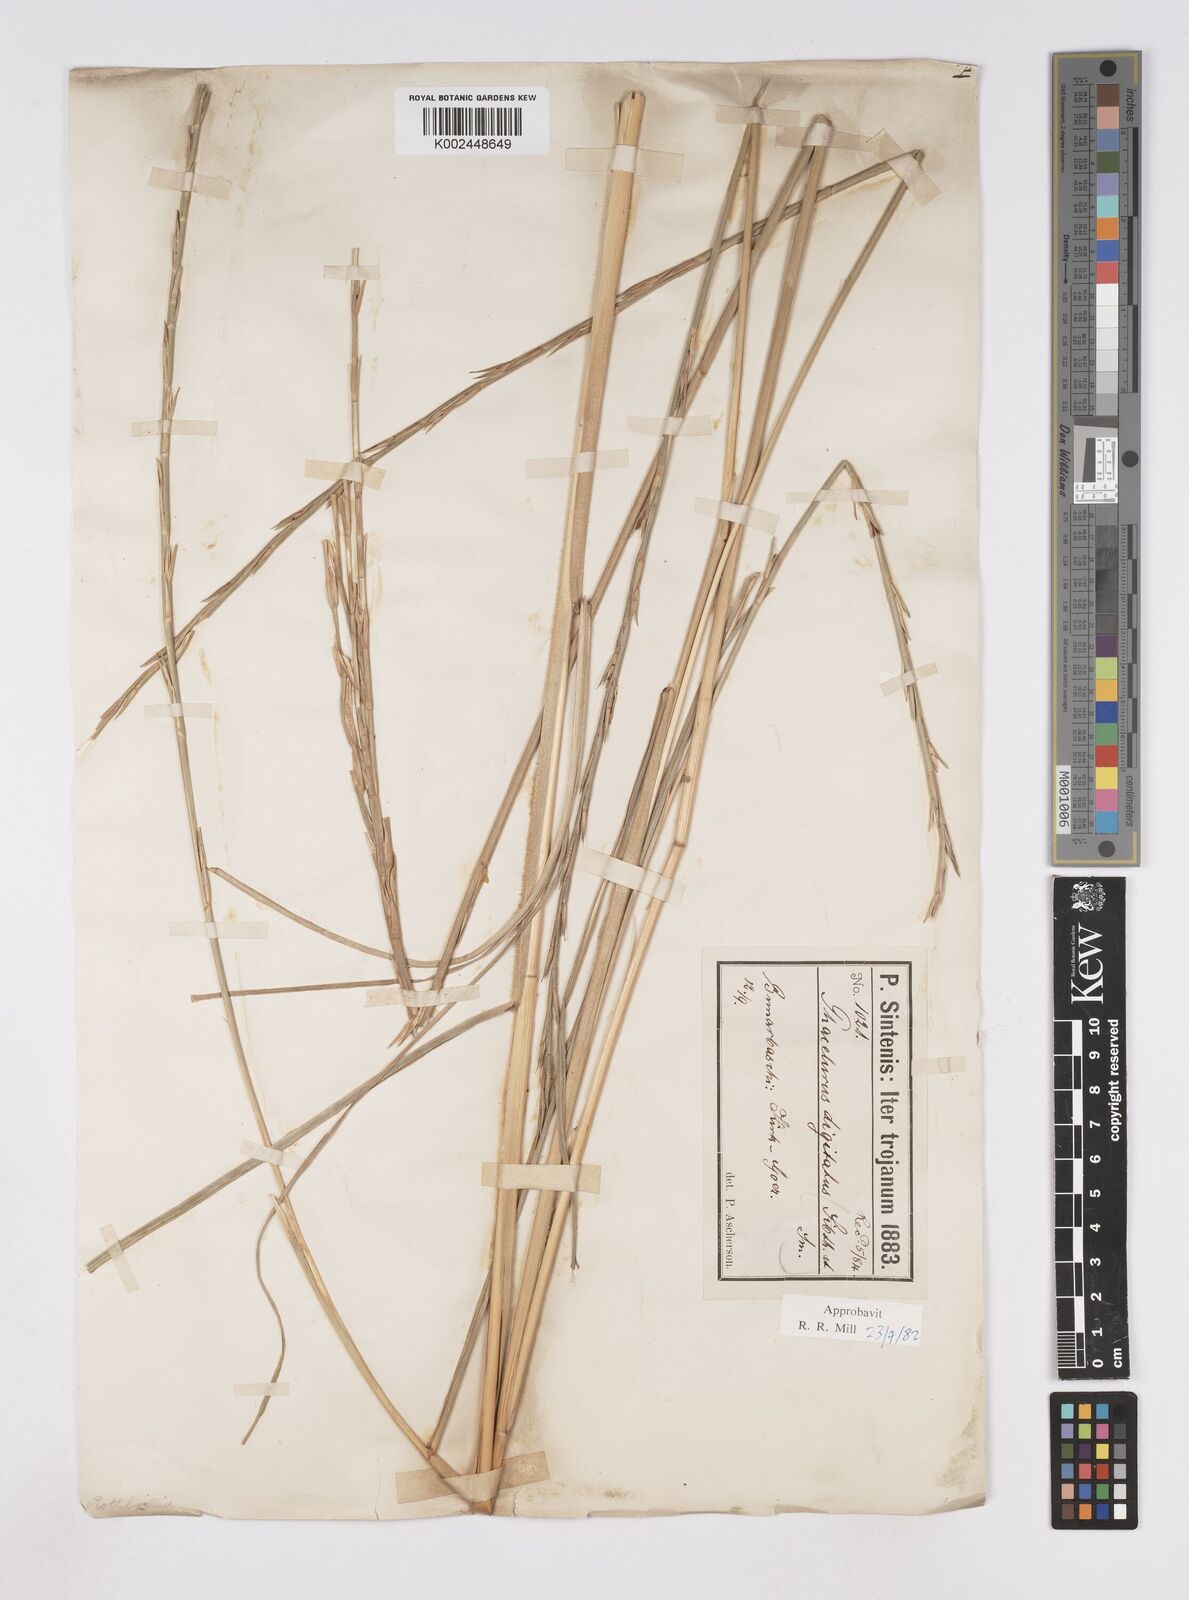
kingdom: Plantae
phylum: Tracheophyta
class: Liliopsida
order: Poales
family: Poaceae
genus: Phacelurus
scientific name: Phacelurus digitatus
